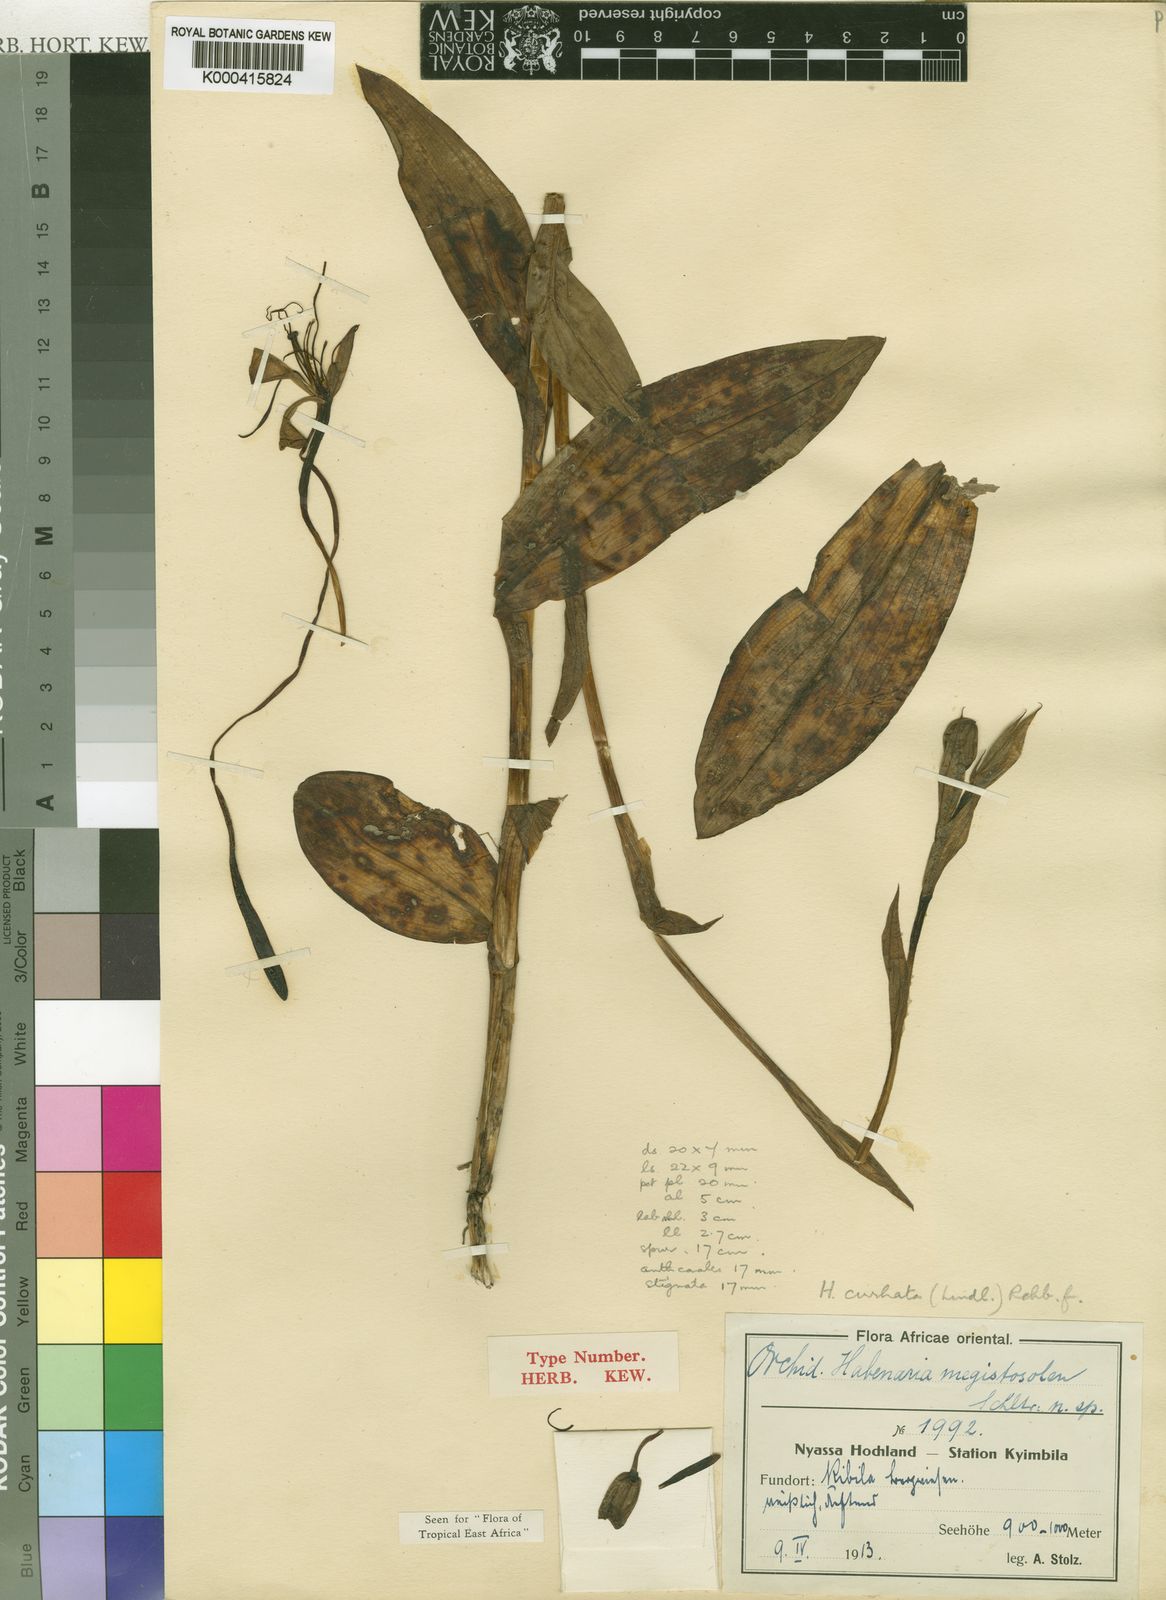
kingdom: Plantae
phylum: Tracheophyta
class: Liliopsida
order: Asparagales
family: Orchidaceae
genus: Habenaria
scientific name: Habenaria cirrhata
